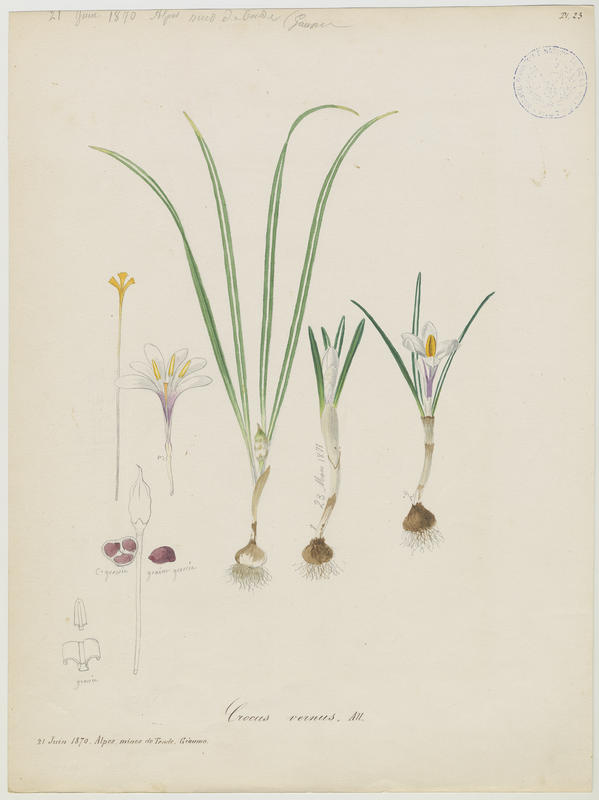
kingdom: Plantae
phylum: Tracheophyta
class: Liliopsida
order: Asparagales
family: Iridaceae
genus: Crocus
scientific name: Crocus vernus
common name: Spring crocus
